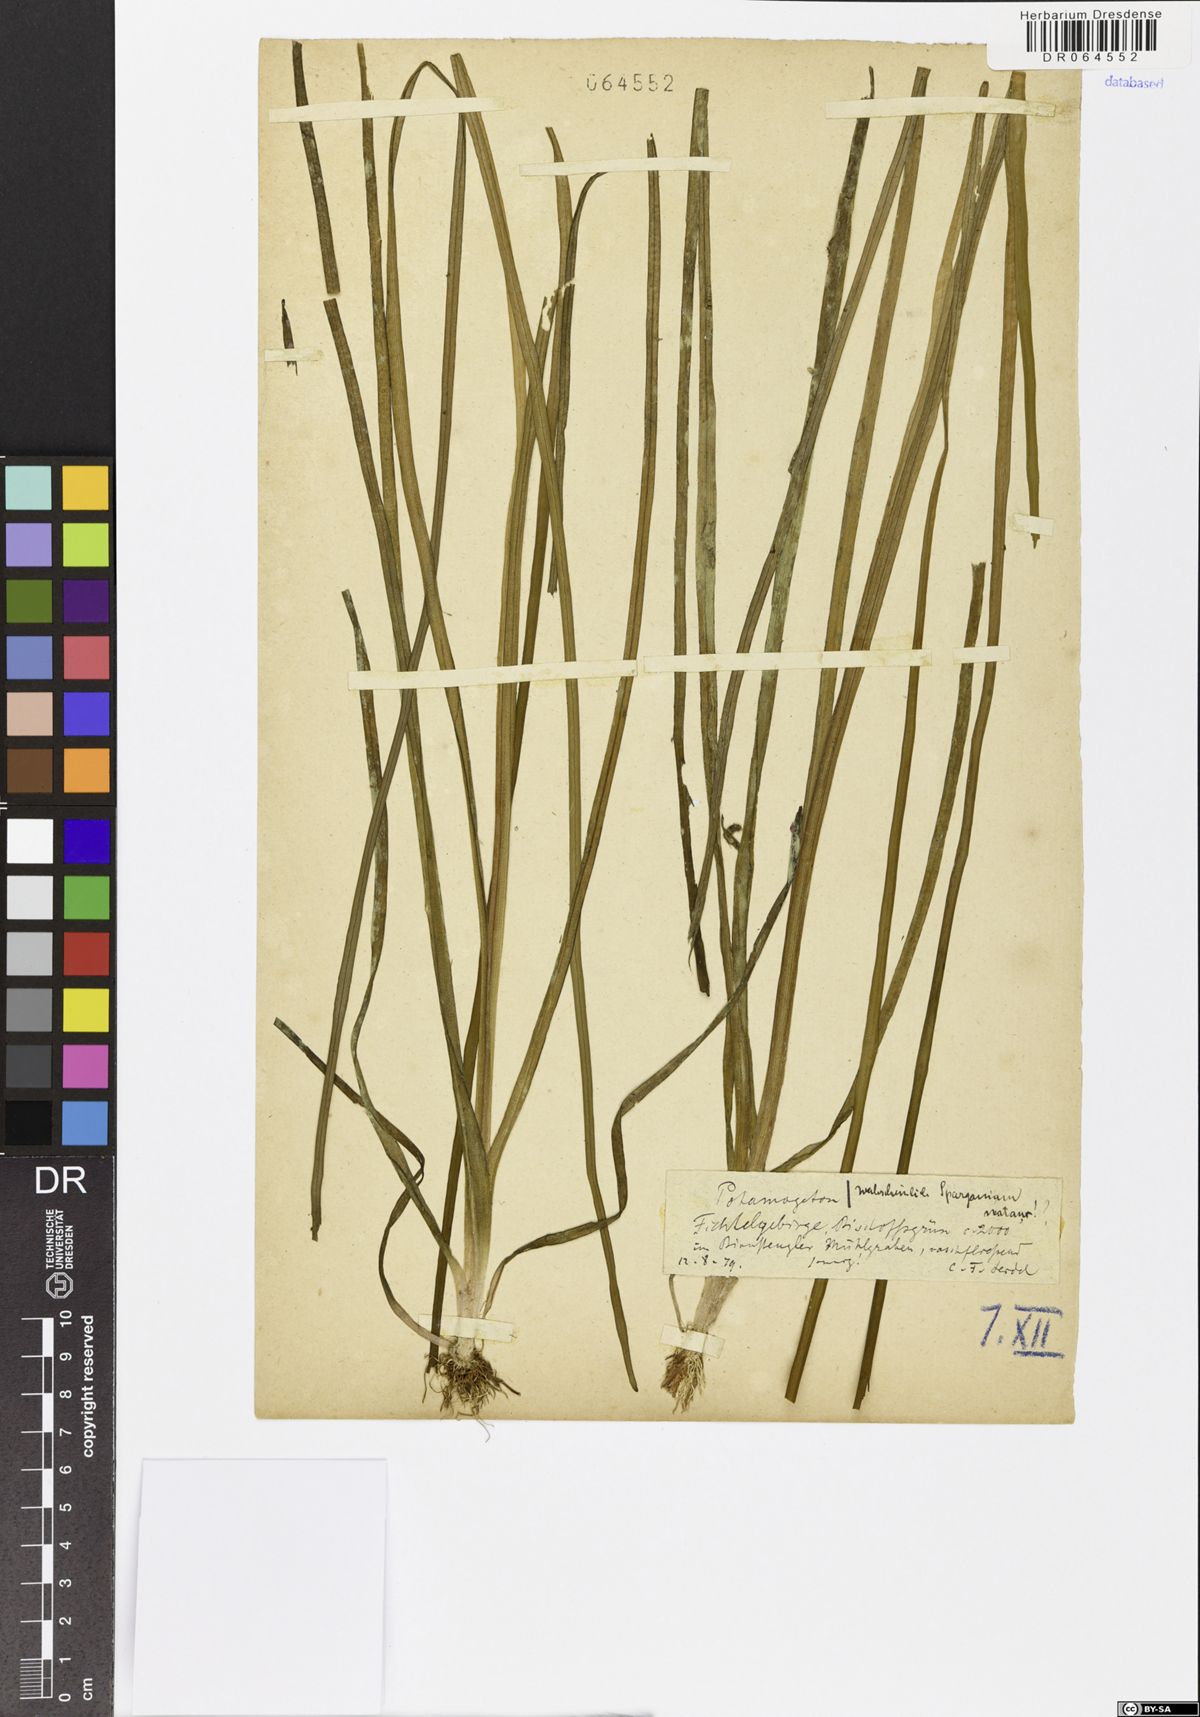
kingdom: Plantae
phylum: Tracheophyta
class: Liliopsida
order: Poales
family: Typhaceae
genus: Sparganium
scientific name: Sparganium natans
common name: Least bur-reed
